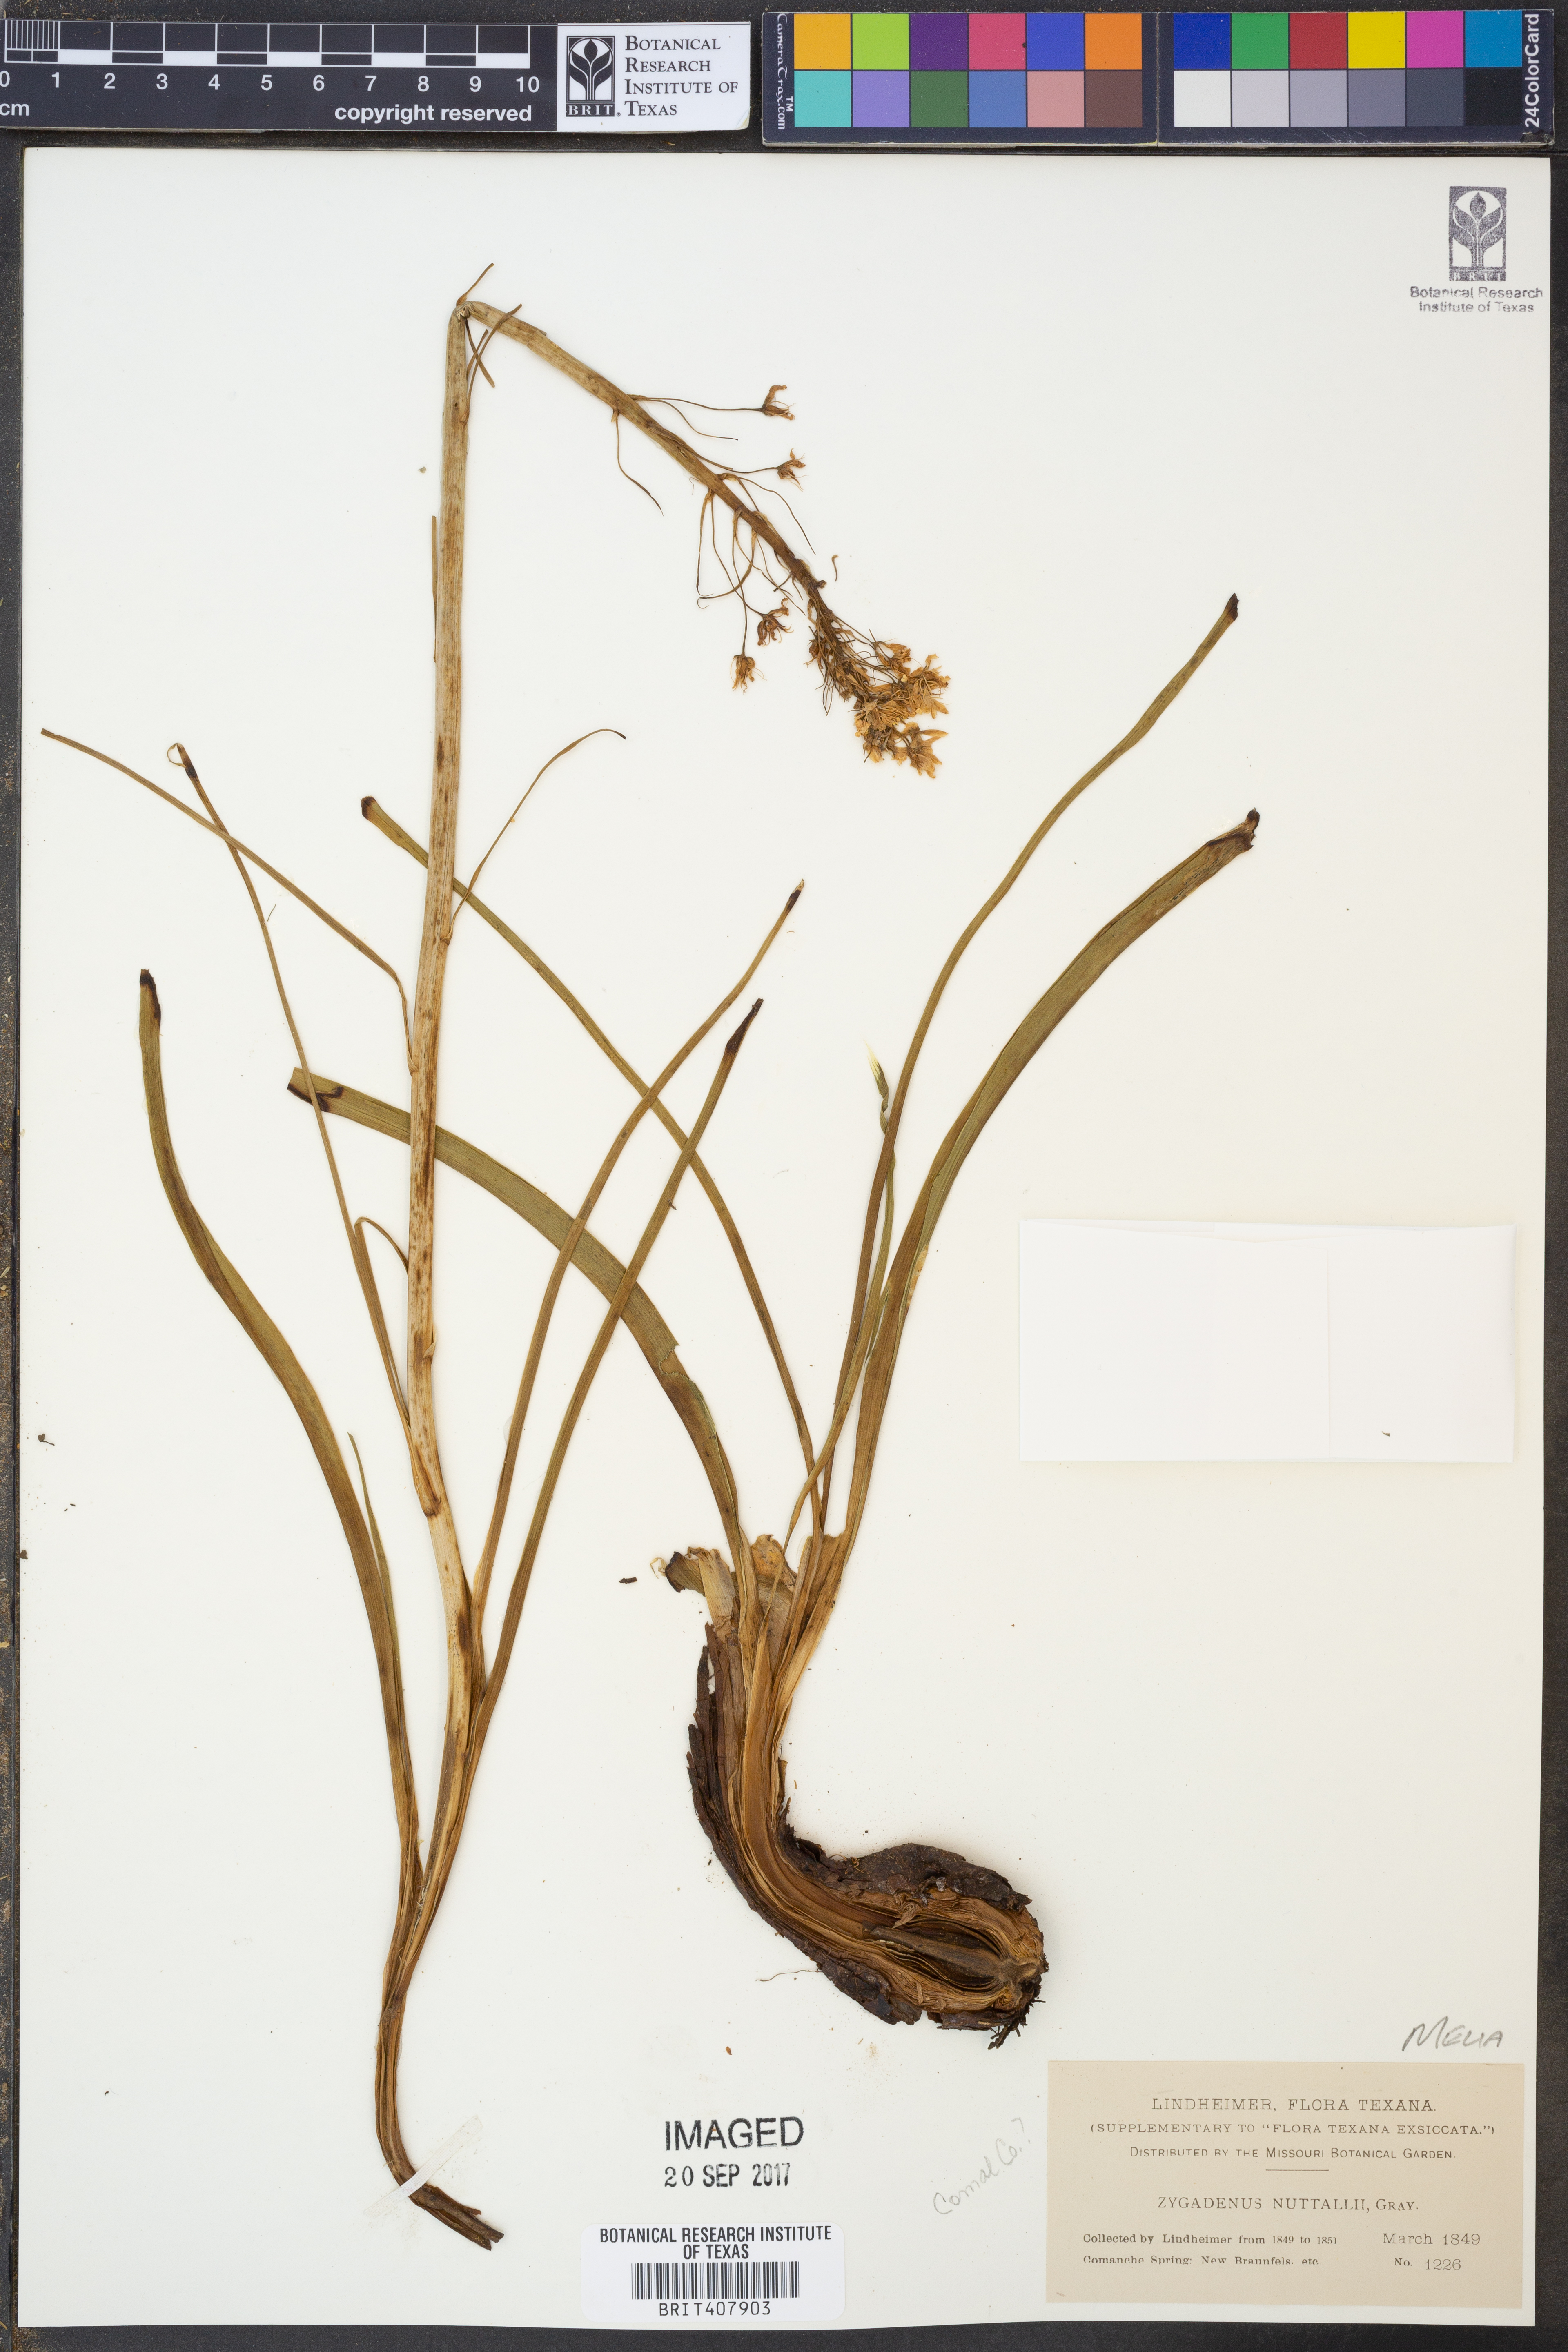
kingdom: Plantae
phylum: Tracheophyta
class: Liliopsida
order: Liliales
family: Melanthiaceae
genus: Toxicoscordion
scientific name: Toxicoscordion nuttallii
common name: Poison sego
